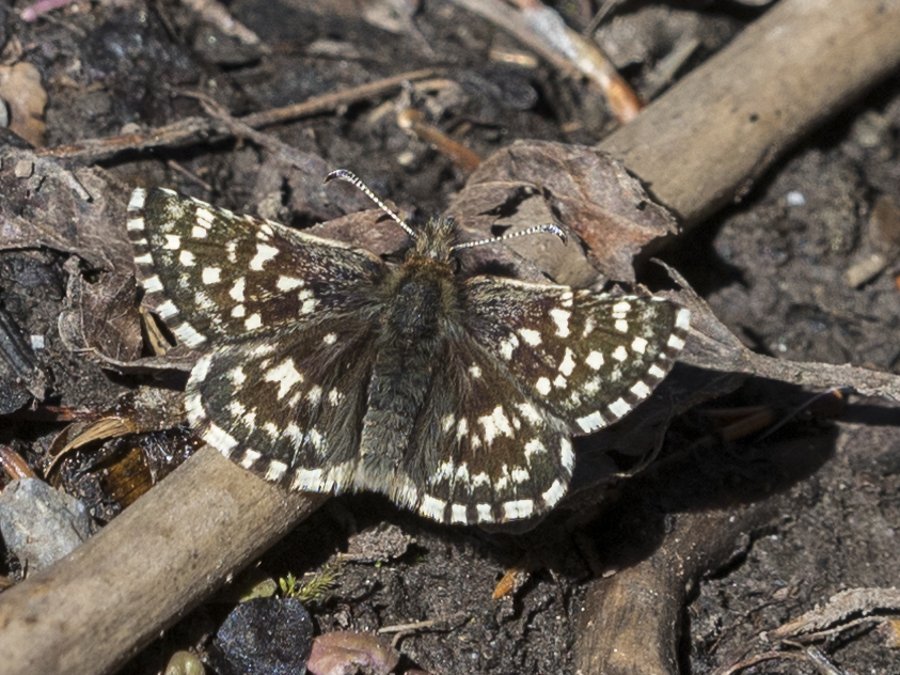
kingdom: Animalia
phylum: Arthropoda
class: Insecta
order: Lepidoptera
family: Hesperiidae
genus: Pyrgus
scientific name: Pyrgus ruralis
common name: Two-banded Checkered-Skipper
